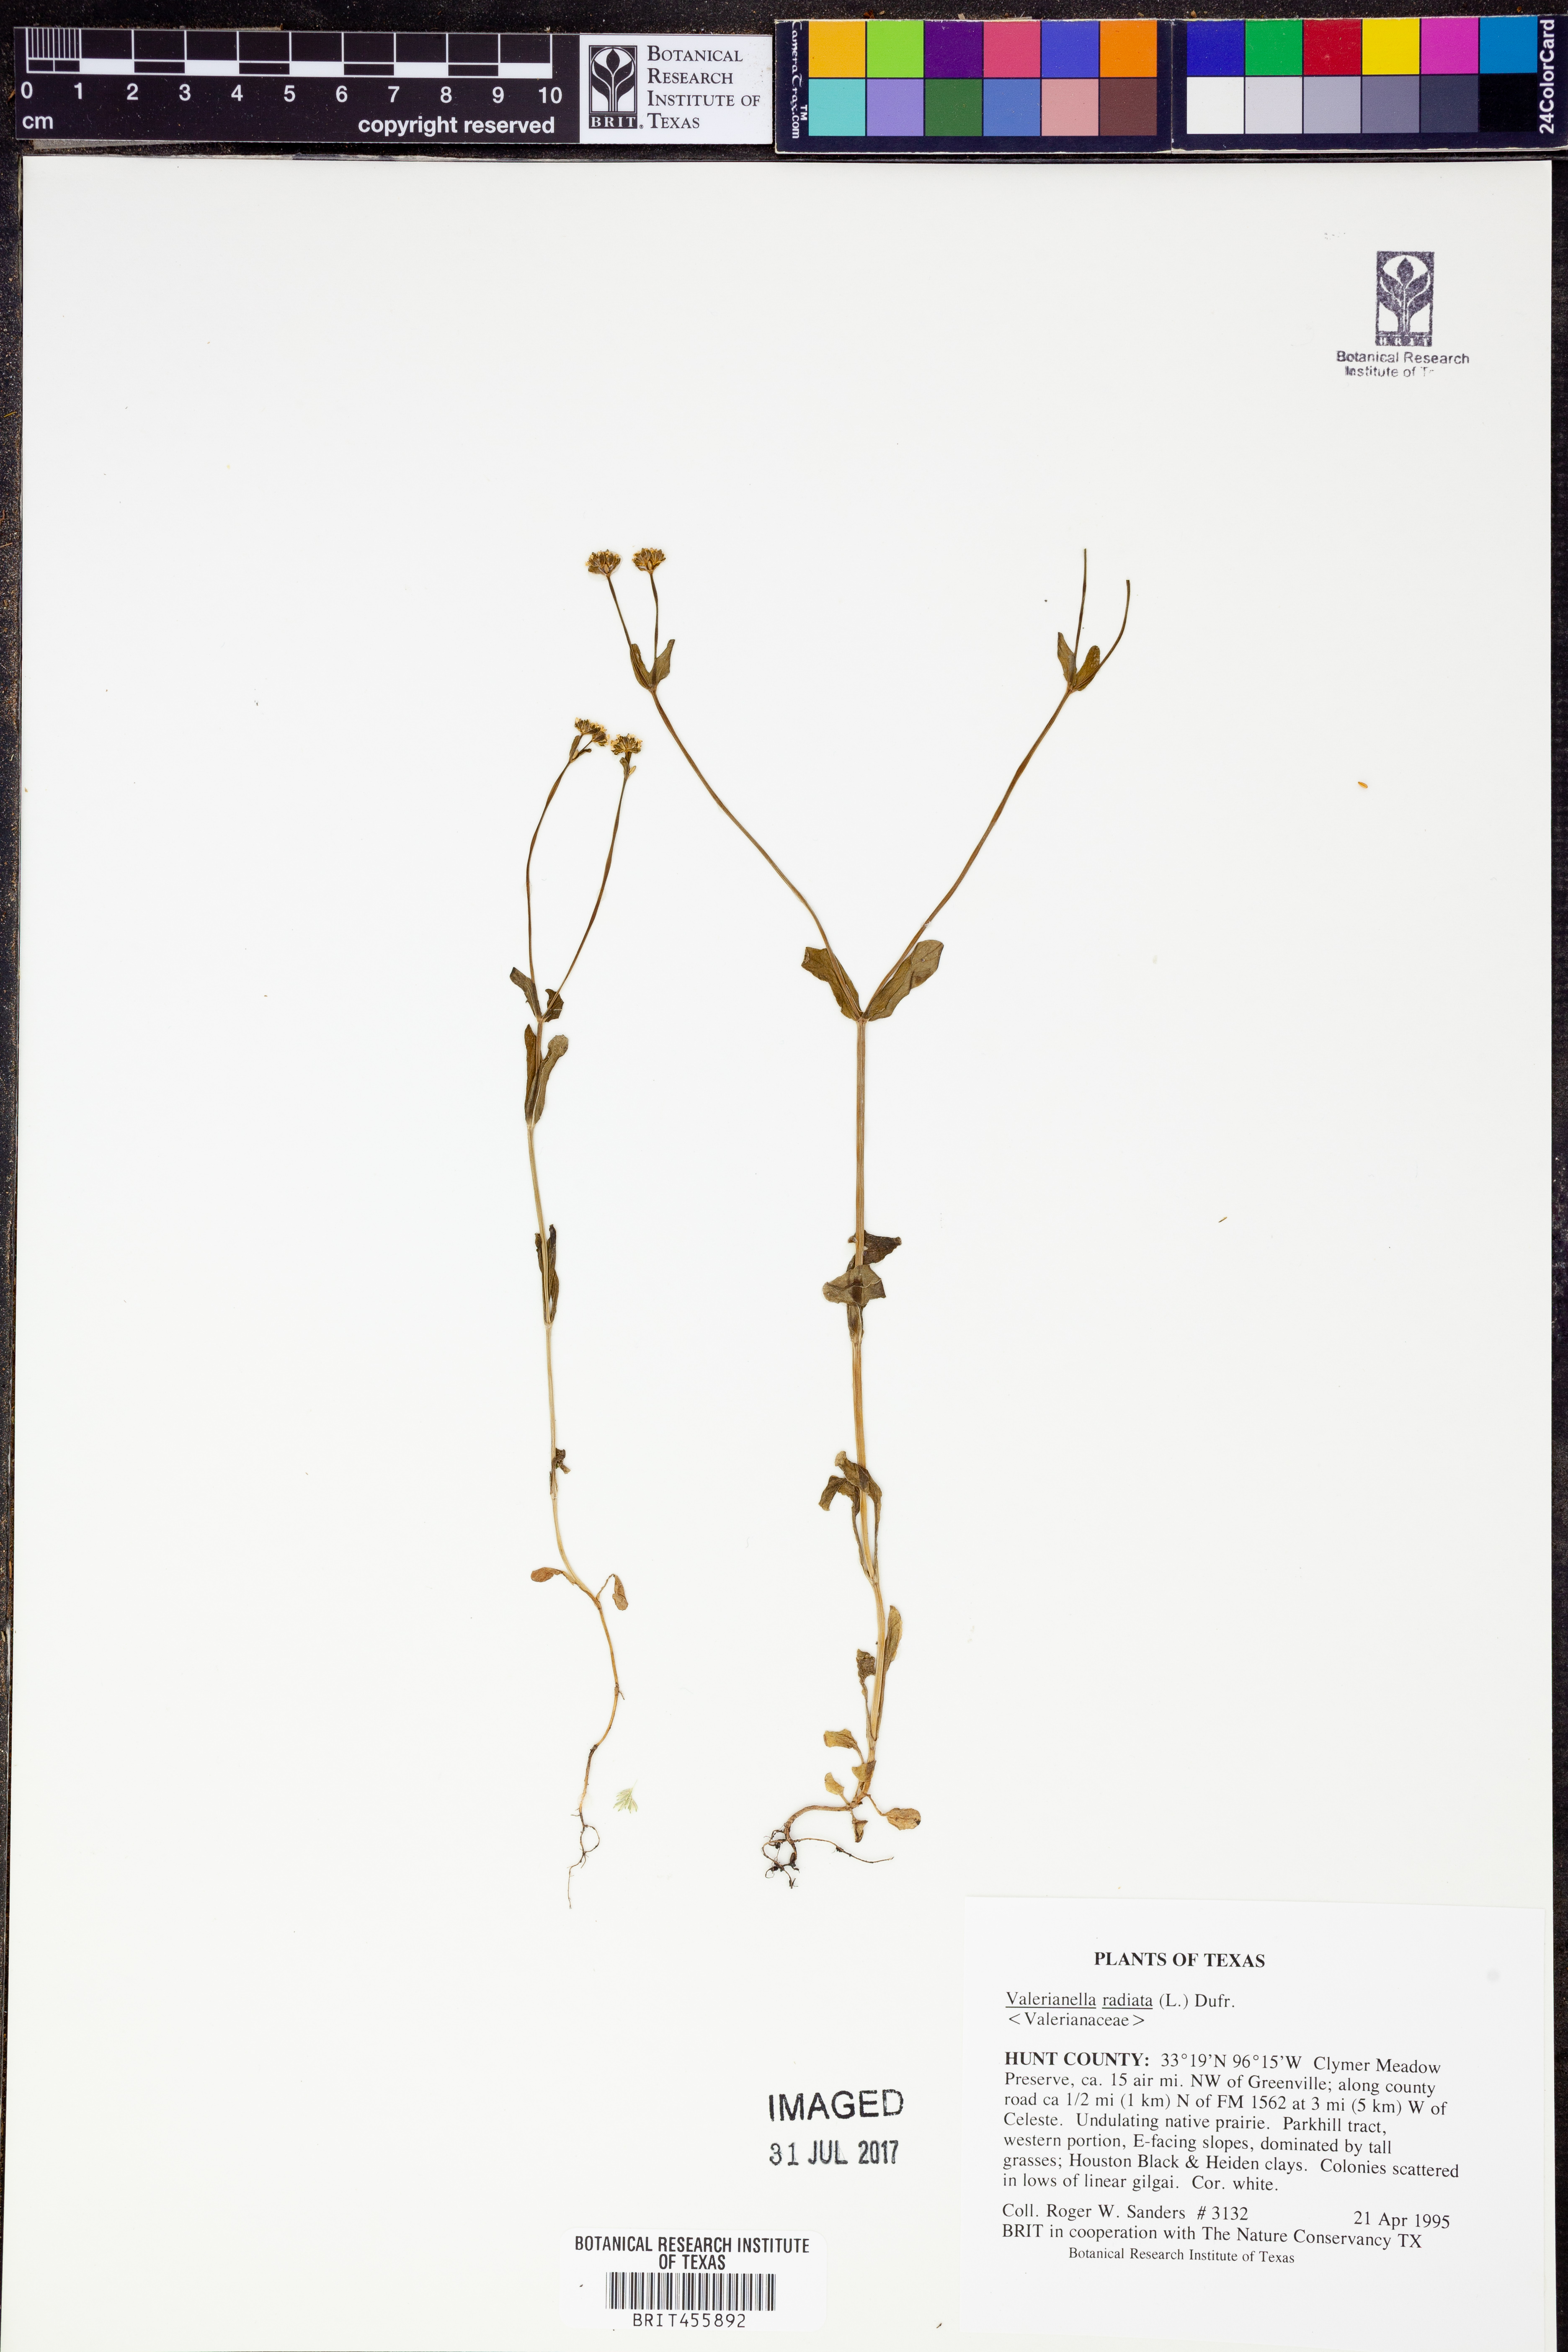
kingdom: Plantae
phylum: Tracheophyta
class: Magnoliopsida
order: Dipsacales
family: Caprifoliaceae
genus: Valerianella
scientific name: Valerianella radiata
